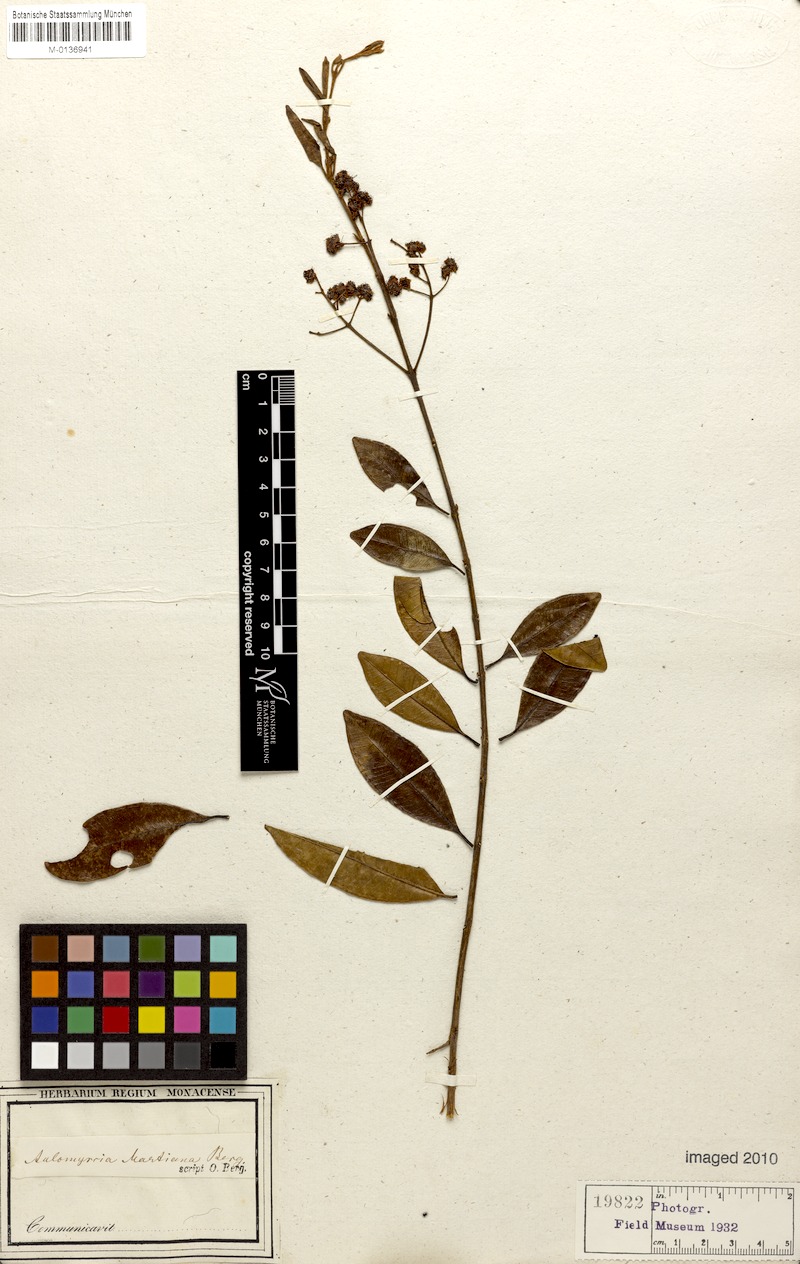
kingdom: Plantae
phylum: Tracheophyta
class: Magnoliopsida
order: Myrtales
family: Myrtaceae
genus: Myrcia
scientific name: Myrcia splendens
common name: Surinam cherry
